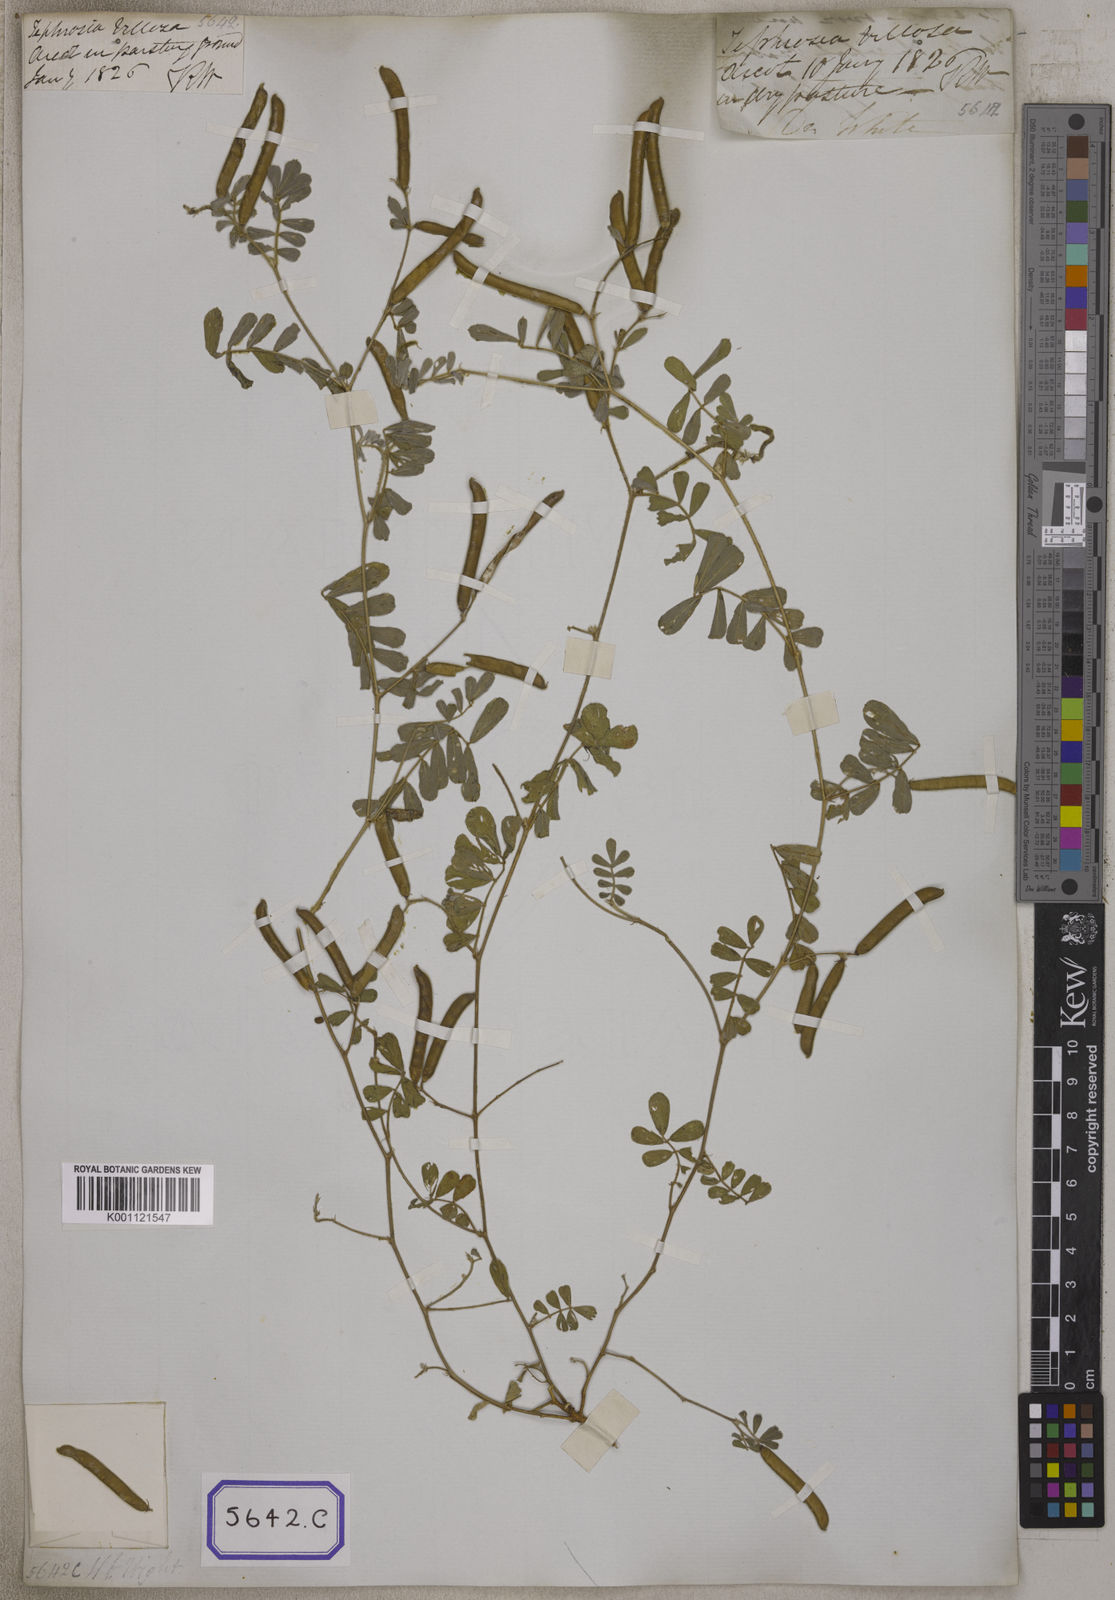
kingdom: Plantae
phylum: Tracheophyta
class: Magnoliopsida
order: Fabales
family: Fabaceae
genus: Tephrosia
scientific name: Tephrosia purpurea
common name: Fishpoison
